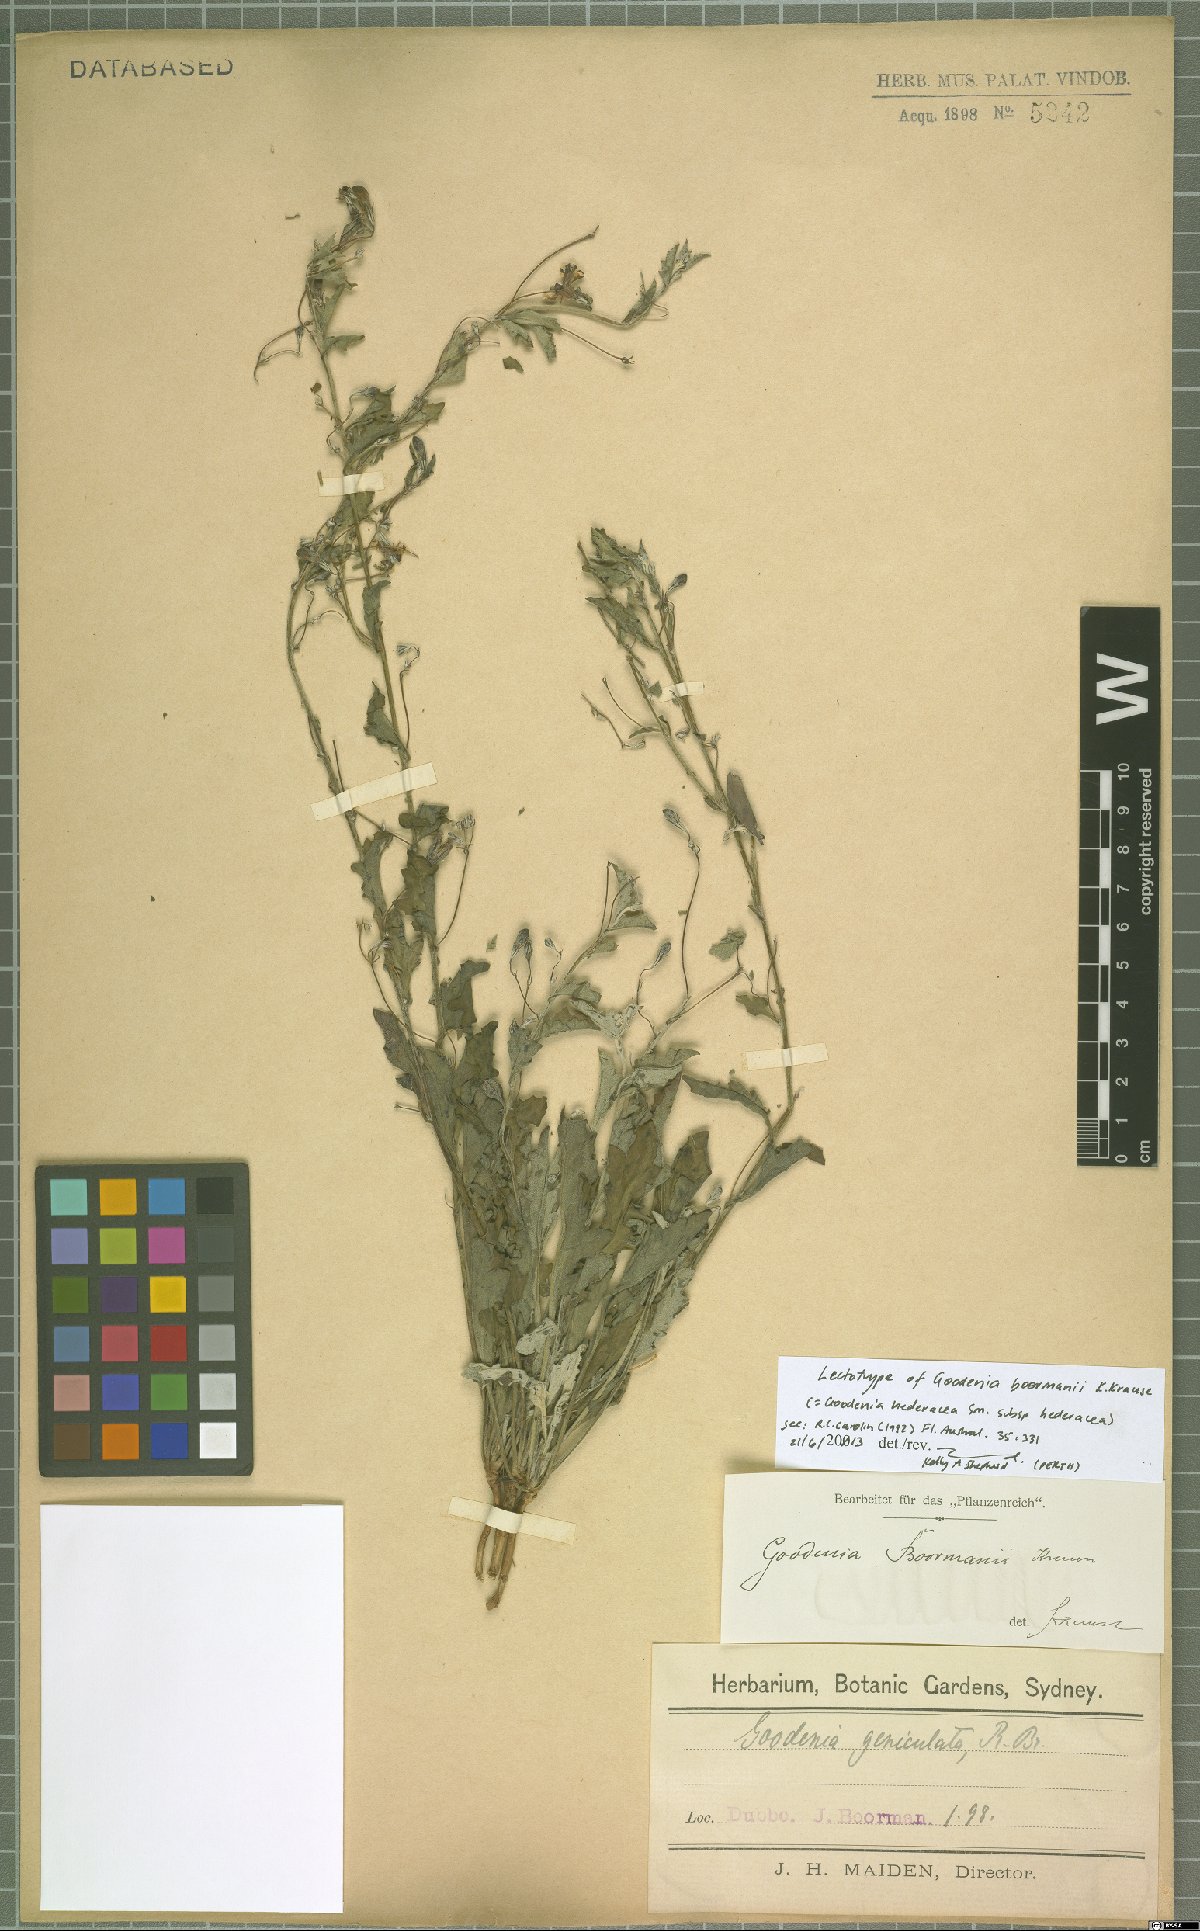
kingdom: Plantae
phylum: Tracheophyta
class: Magnoliopsida
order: Asterales
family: Goodeniaceae
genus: Goodenia
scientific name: Goodenia hederacea
